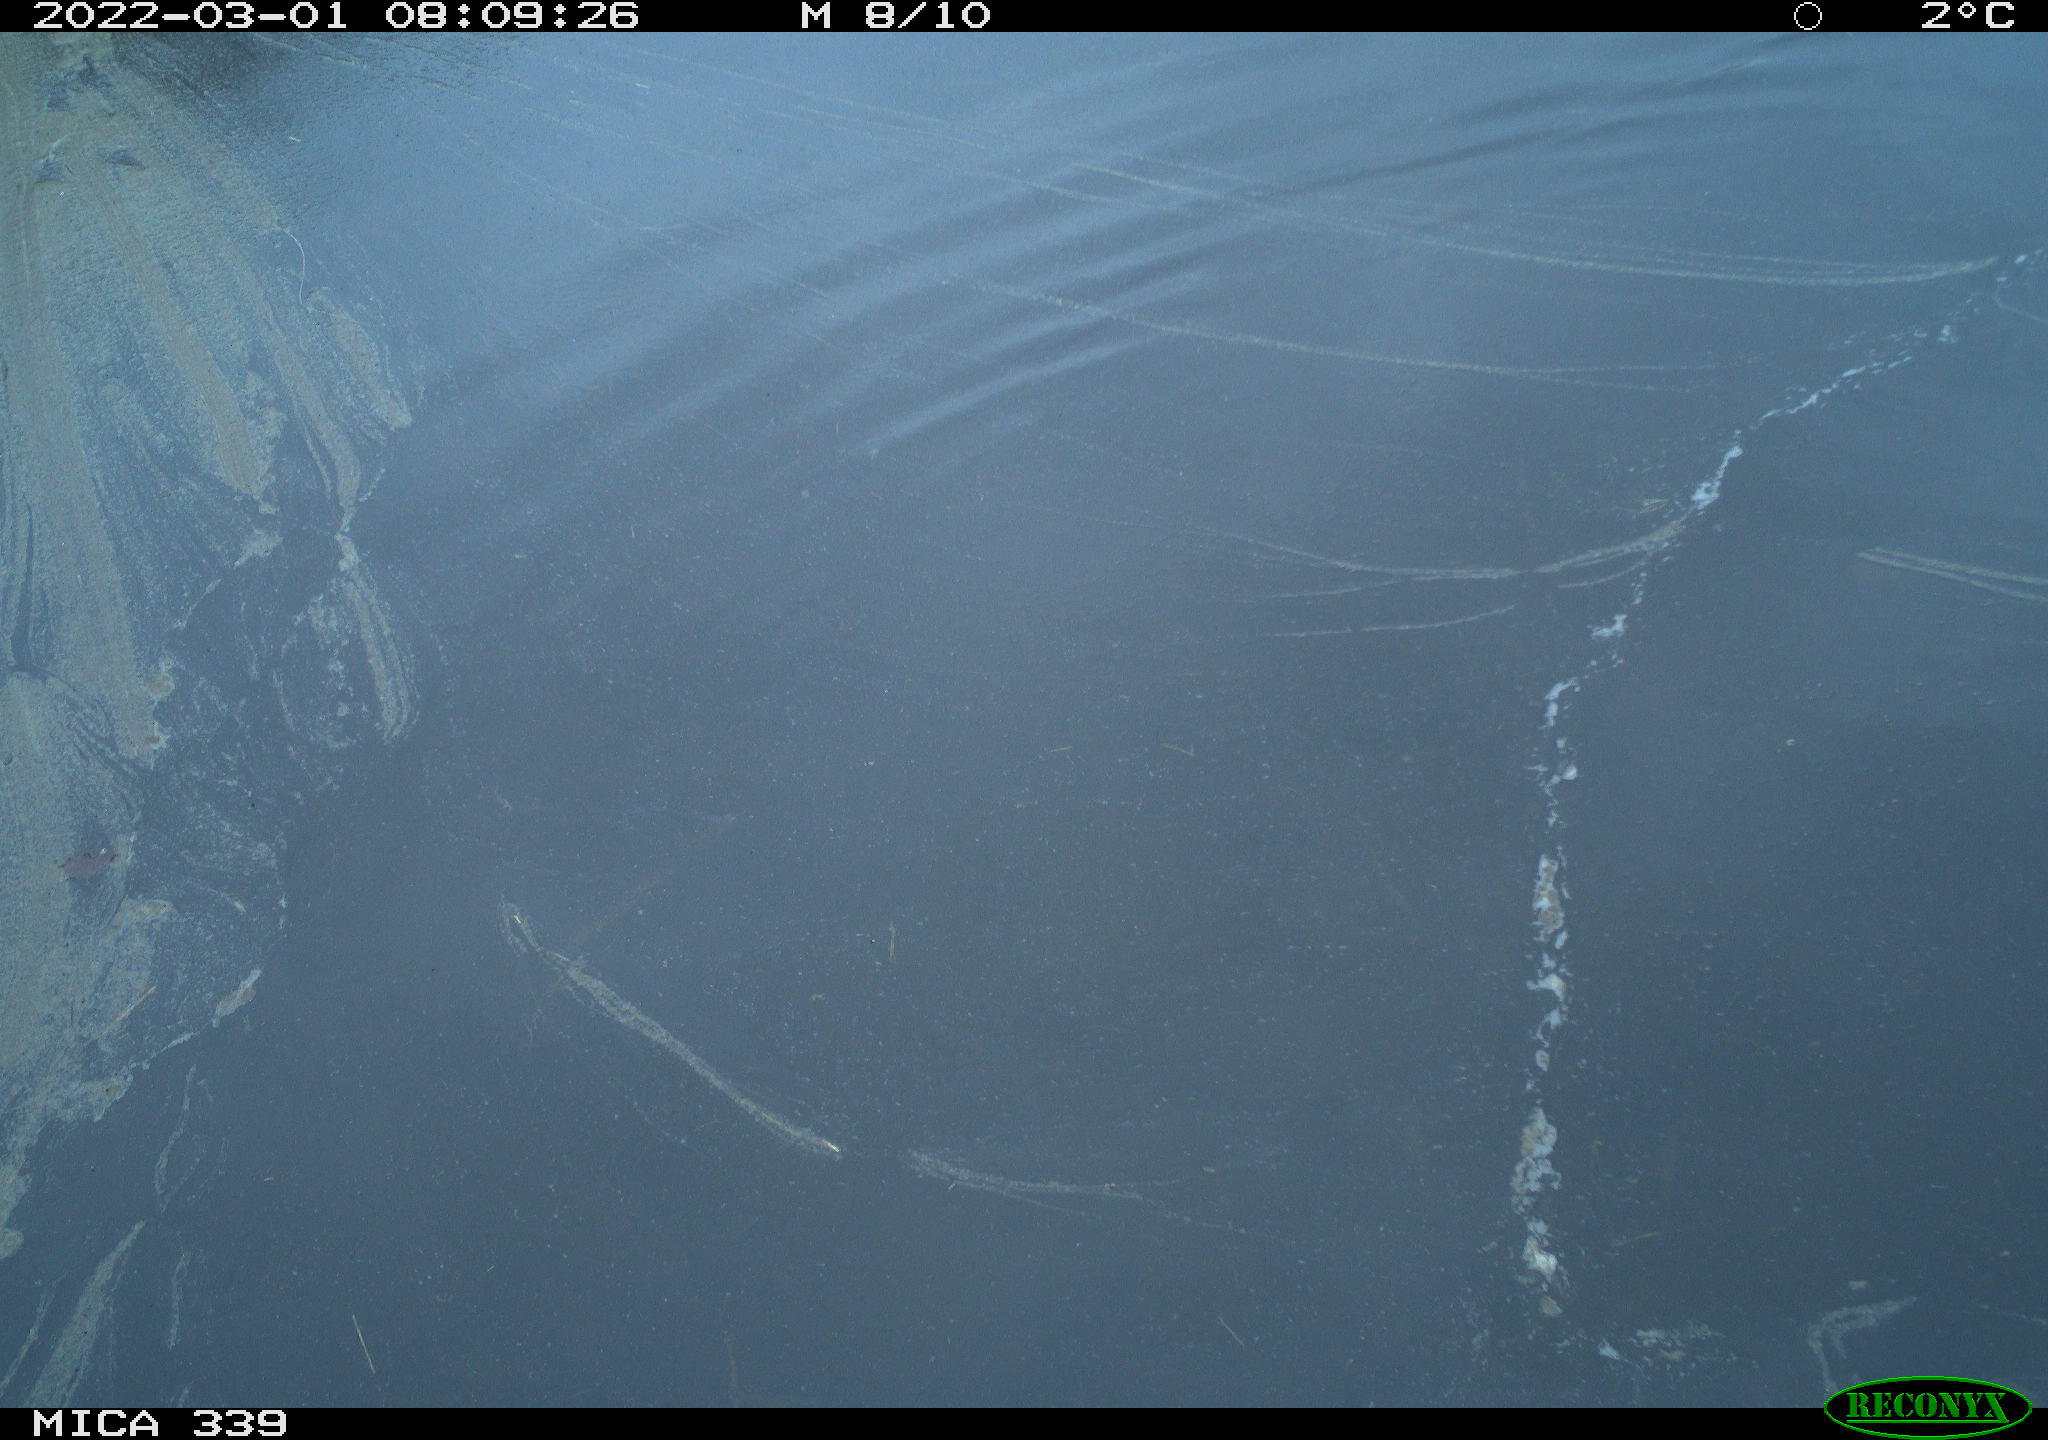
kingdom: Animalia
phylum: Chordata
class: Aves
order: Anseriformes
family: Anatidae
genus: Anas
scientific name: Anas platyrhynchos
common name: Mallard
